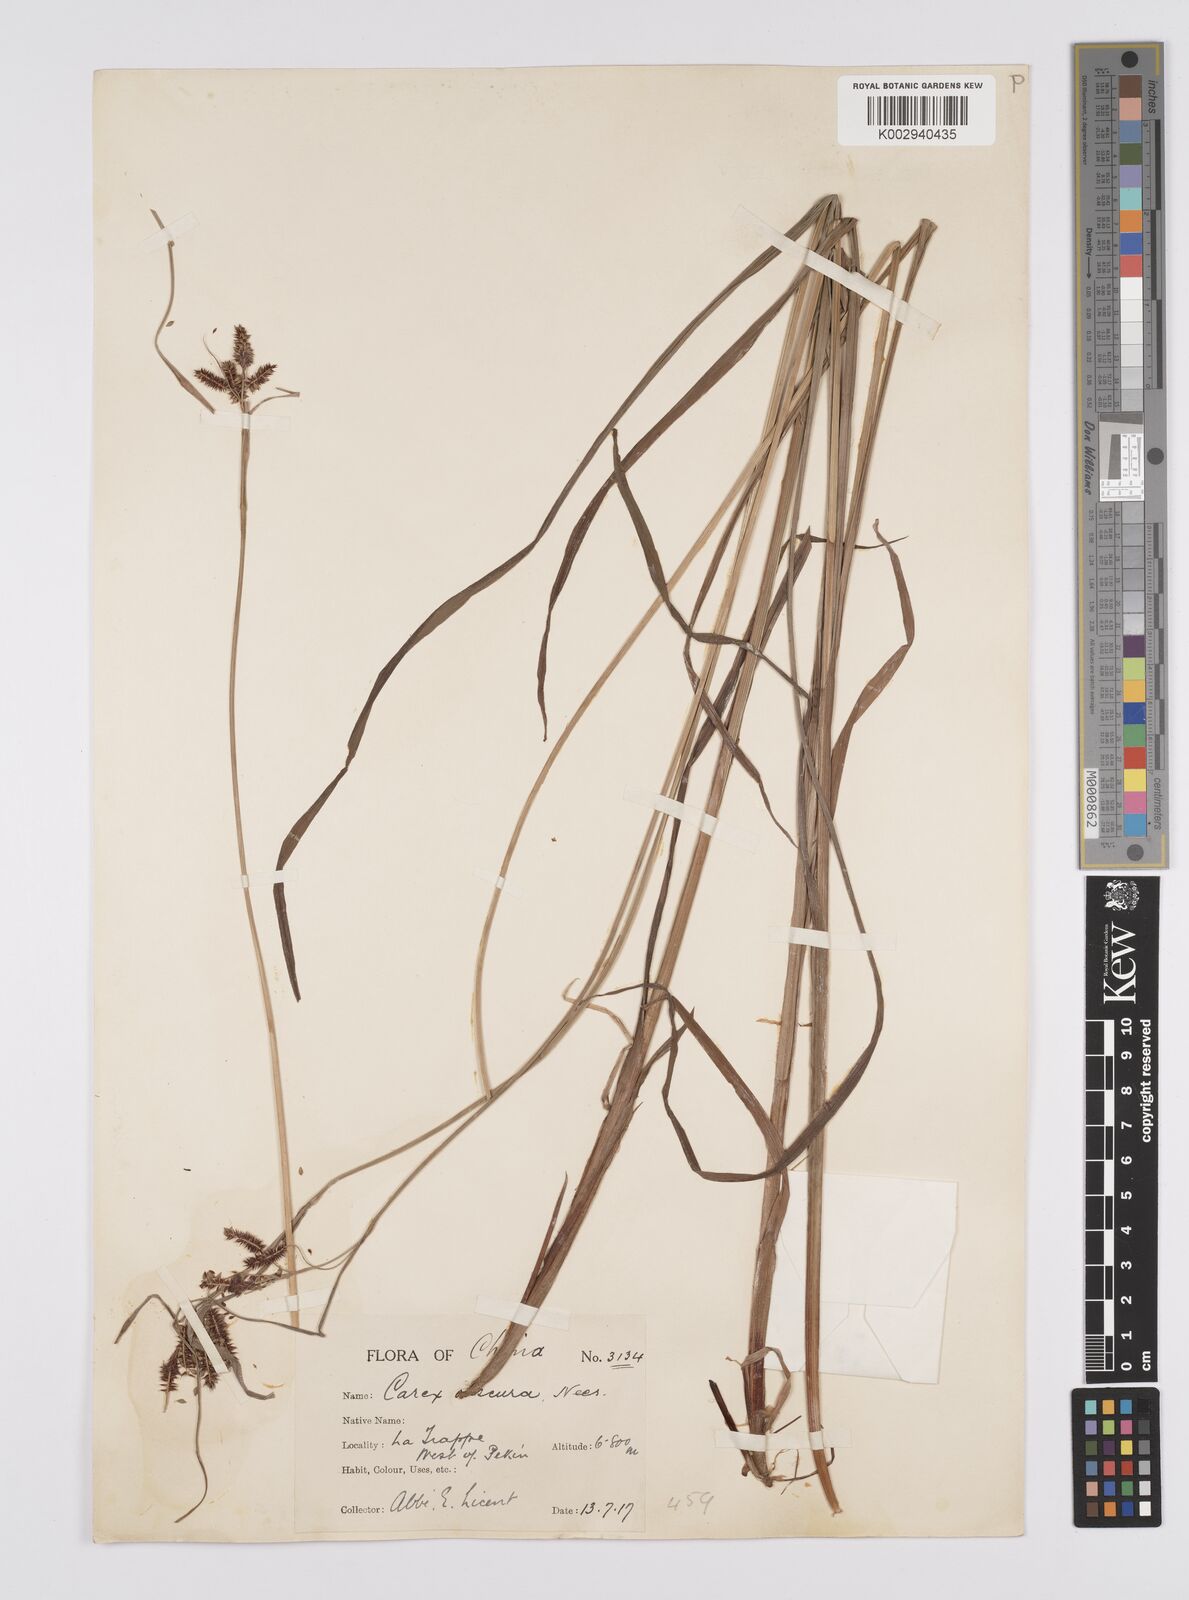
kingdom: Plantae
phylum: Tracheophyta
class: Liliopsida
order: Poales
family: Cyperaceae
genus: Carex
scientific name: Carex obscura
